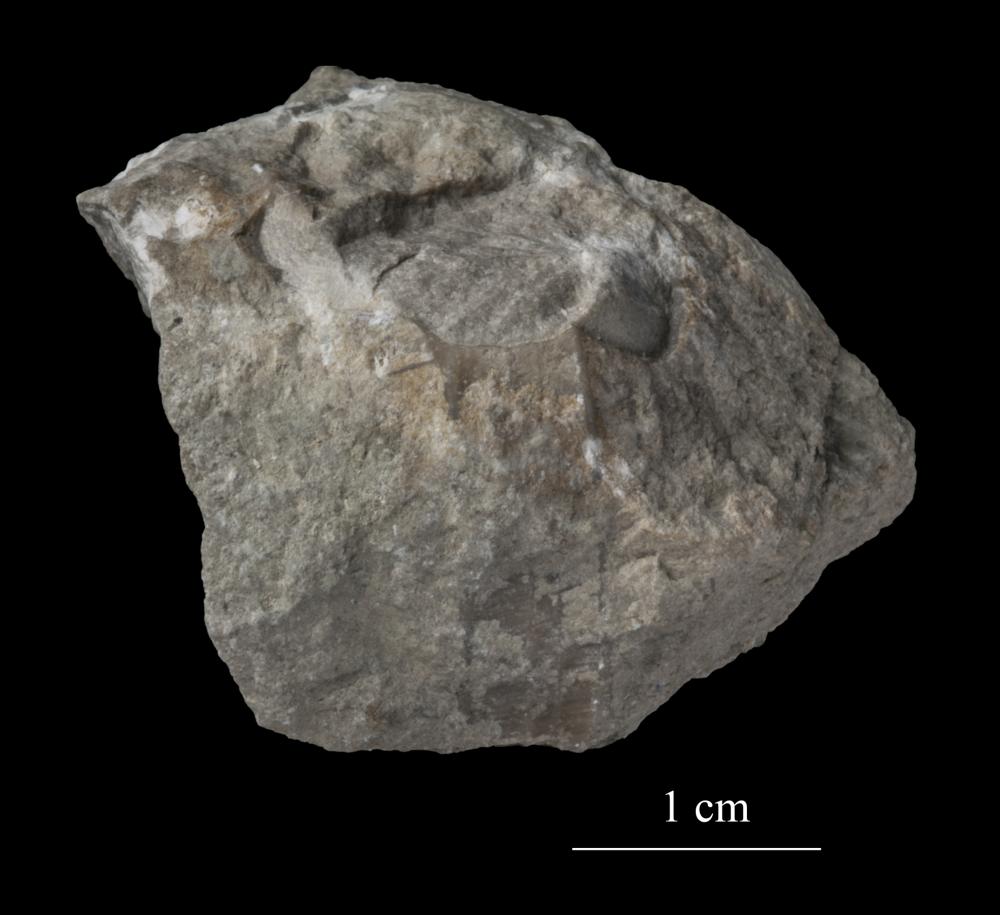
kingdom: Animalia
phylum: Mollusca
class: Gastropoda
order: Trochida
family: Trochidae
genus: Trochus
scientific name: Trochus
